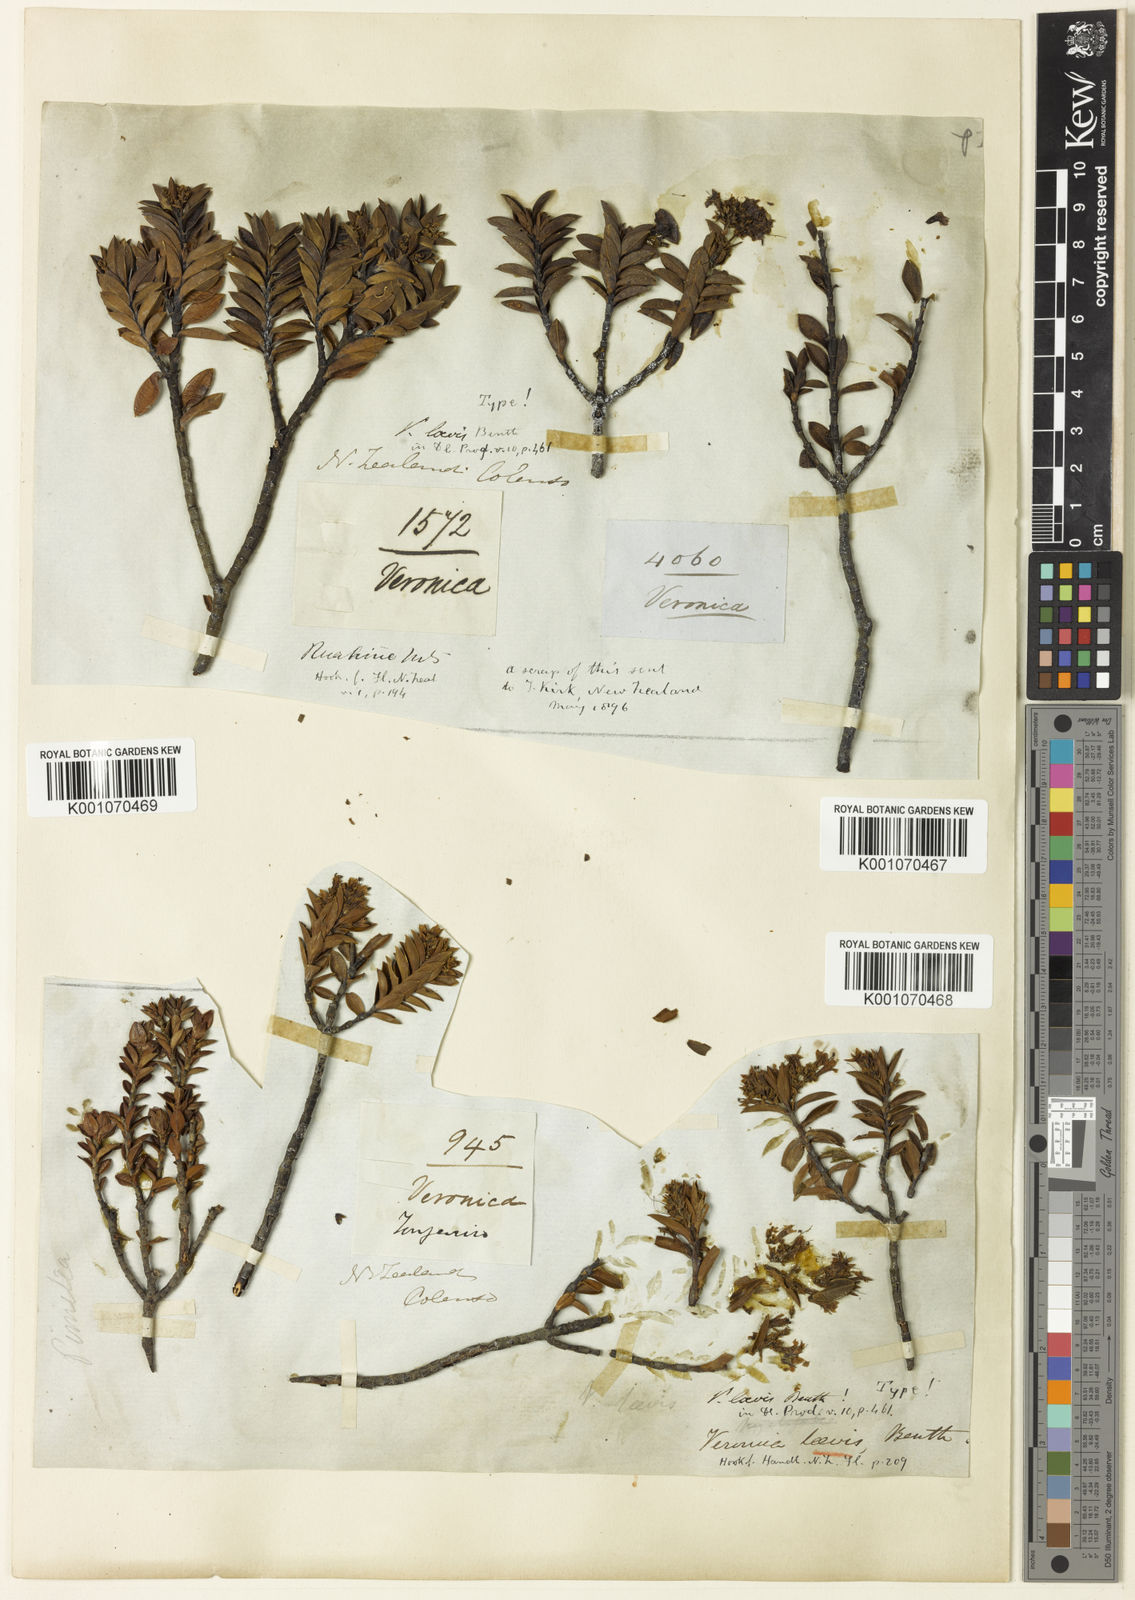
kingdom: Plantae
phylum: Tracheophyta
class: Magnoliopsida
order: Lamiales
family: Plantaginaceae
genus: Veronica
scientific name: Veronica venustula
